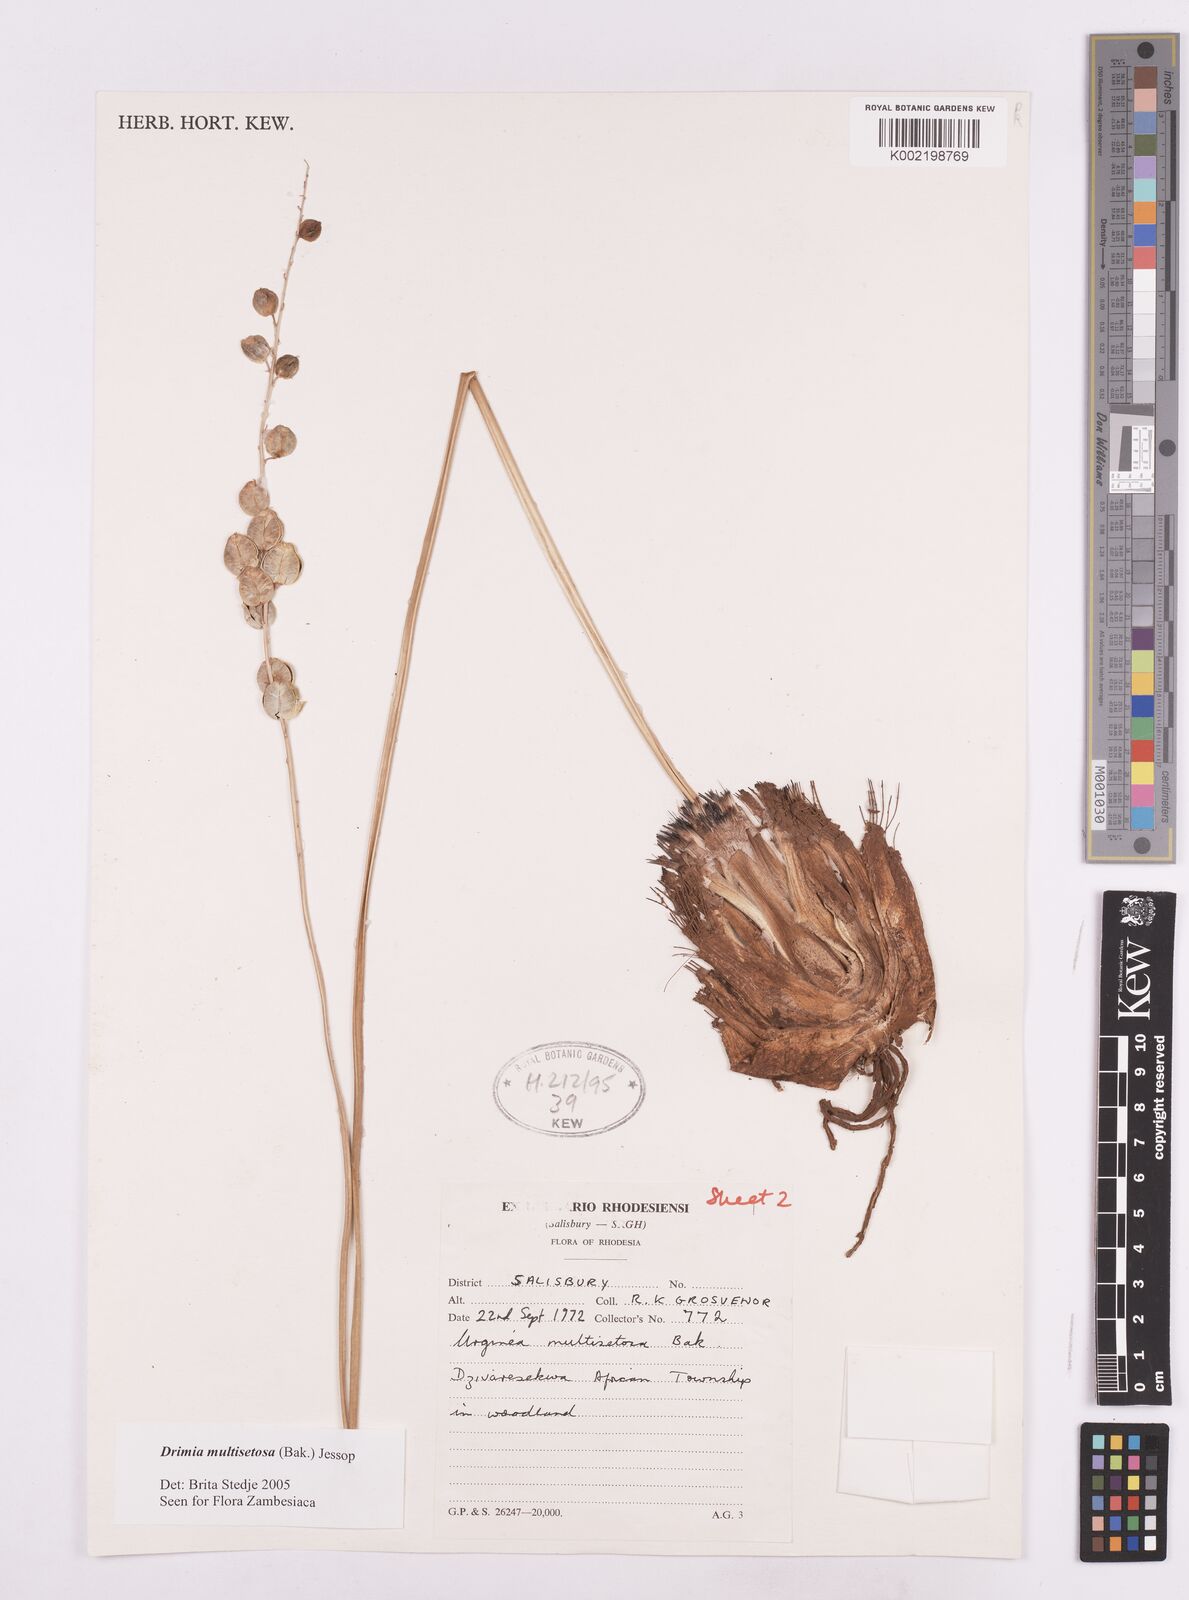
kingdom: Plantae
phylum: Tracheophyta
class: Liliopsida
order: Asparagales
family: Asparagaceae
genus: Drimia
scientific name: Drimia multisetosa
